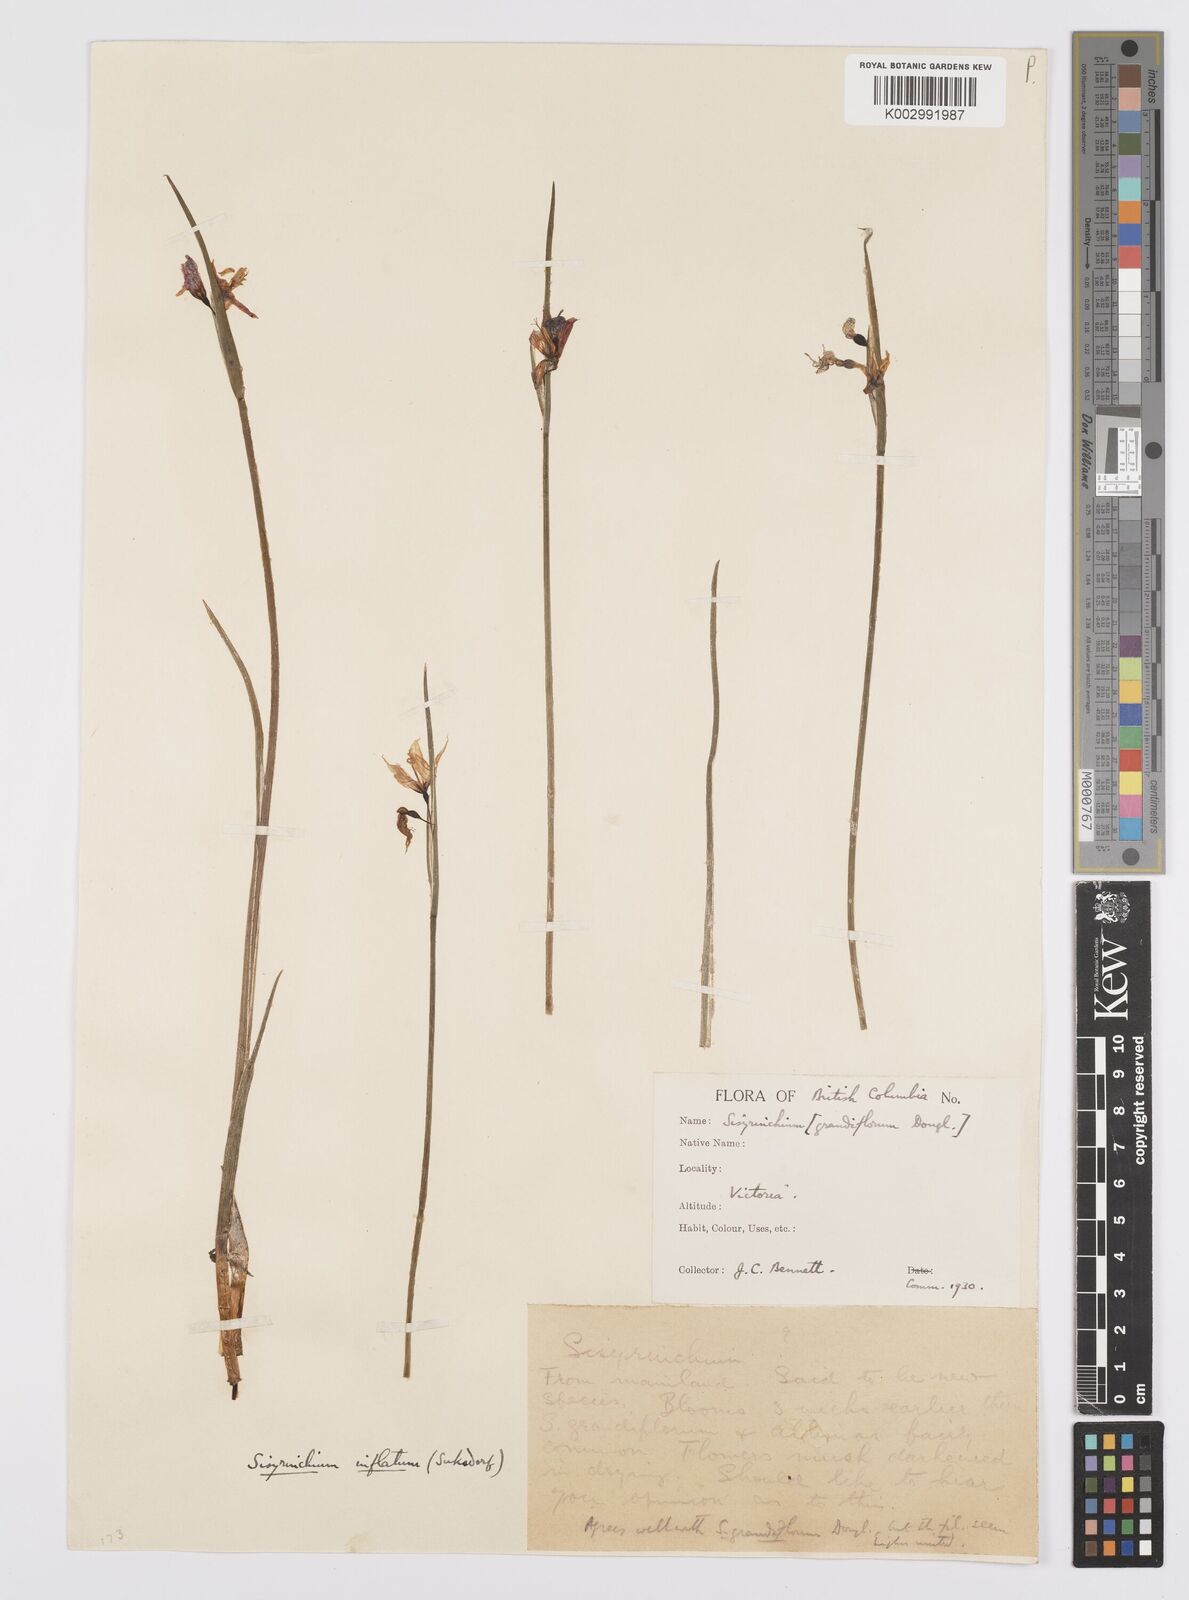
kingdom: Plantae
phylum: Tracheophyta
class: Liliopsida
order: Asparagales
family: Iridaceae
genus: Olsynium
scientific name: Olsynium douglasii
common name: Douglas' grasswidow
